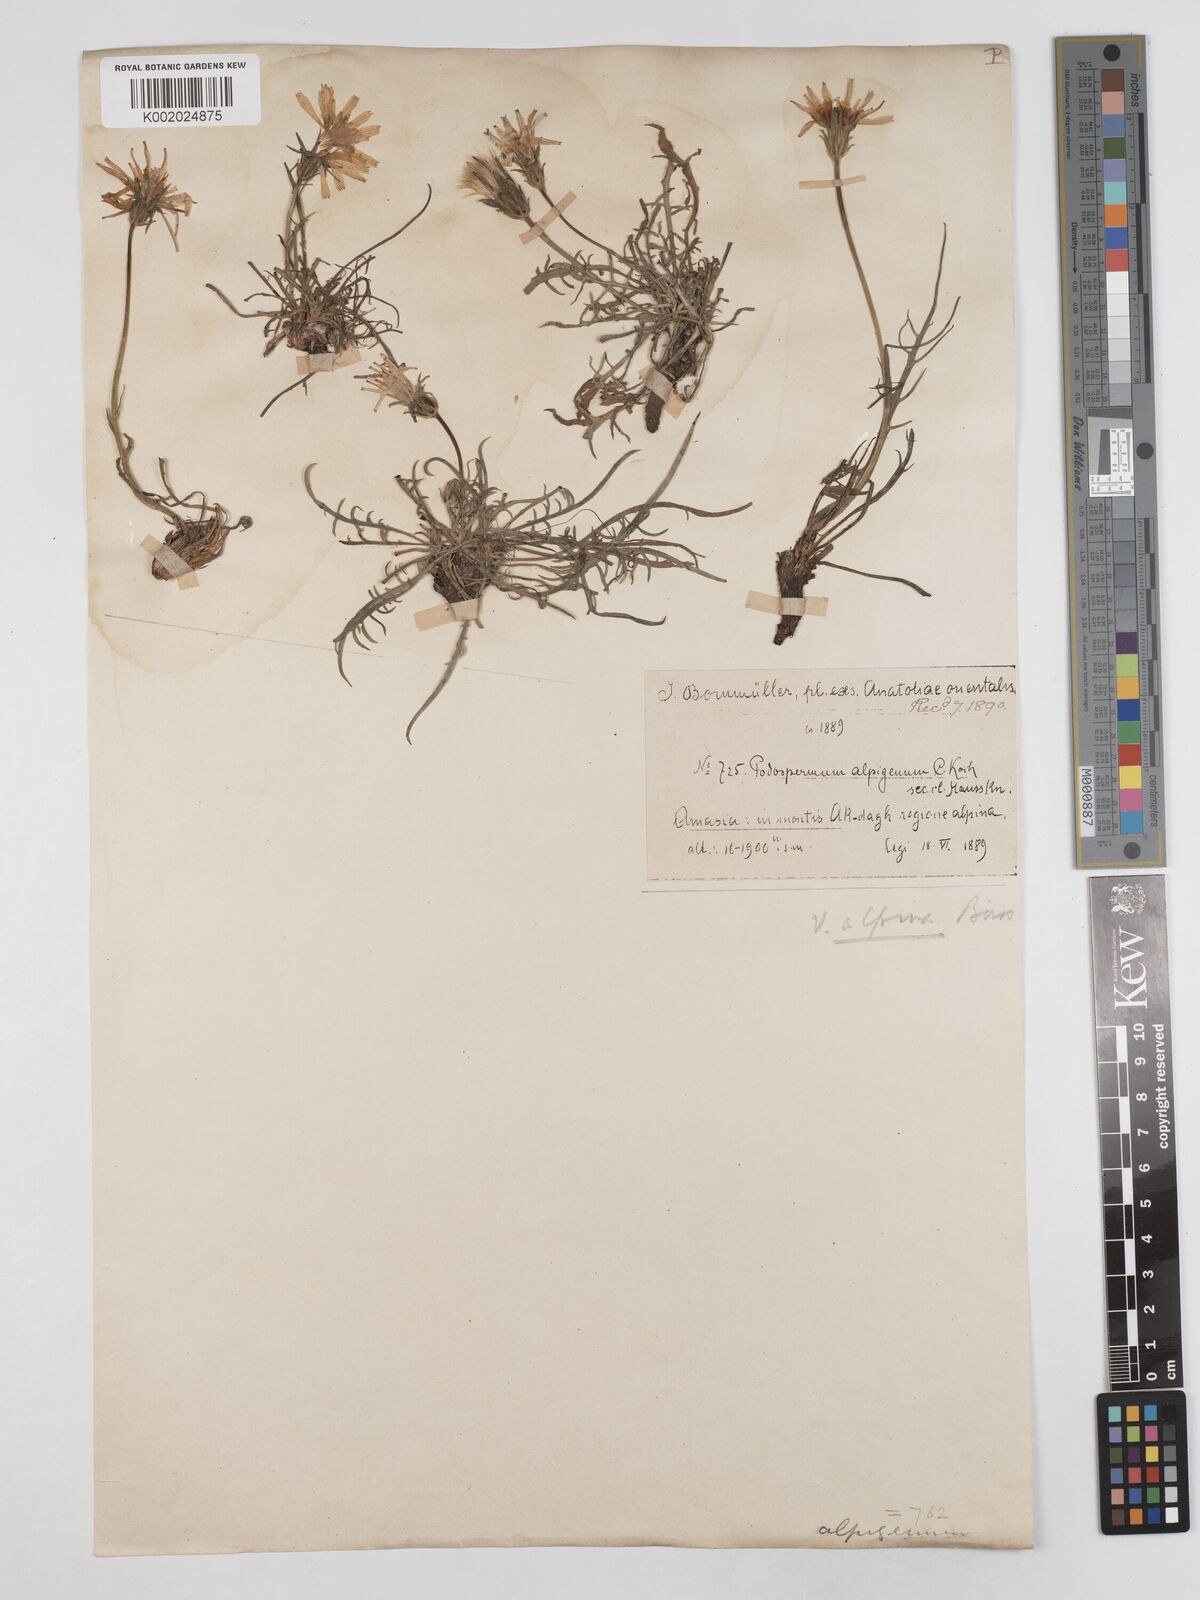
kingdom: Plantae
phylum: Tracheophyta
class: Magnoliopsida
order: Asterales
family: Asteraceae
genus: Scorzonera
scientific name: Scorzonera cana
